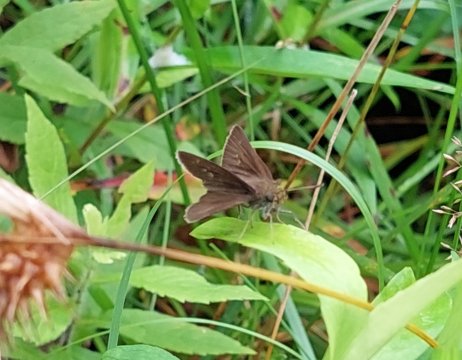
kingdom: Animalia
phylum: Arthropoda
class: Insecta
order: Lepidoptera
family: Hesperiidae
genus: Euphyes
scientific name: Euphyes vestris
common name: Dun Skipper
